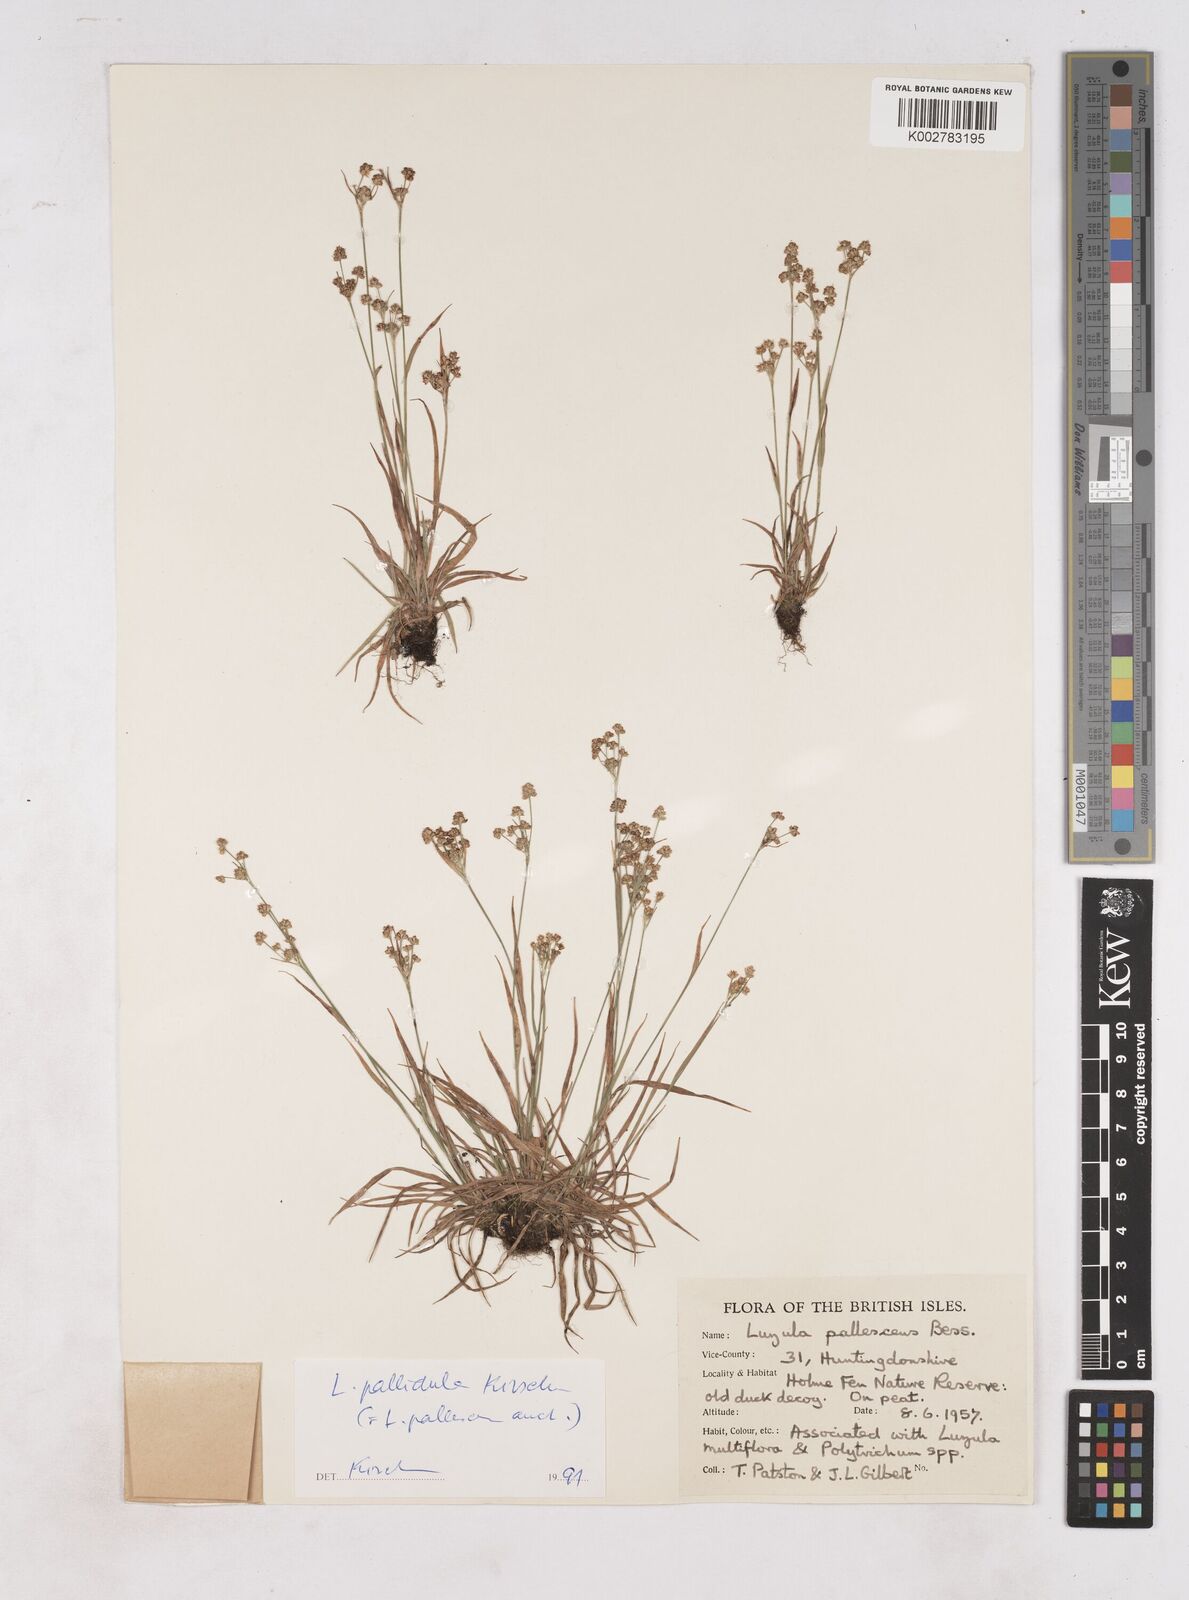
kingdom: Plantae
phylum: Tracheophyta
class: Liliopsida
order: Poales
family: Juncaceae
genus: Luzula
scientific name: Luzula pallescens
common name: Fen wood-rush
